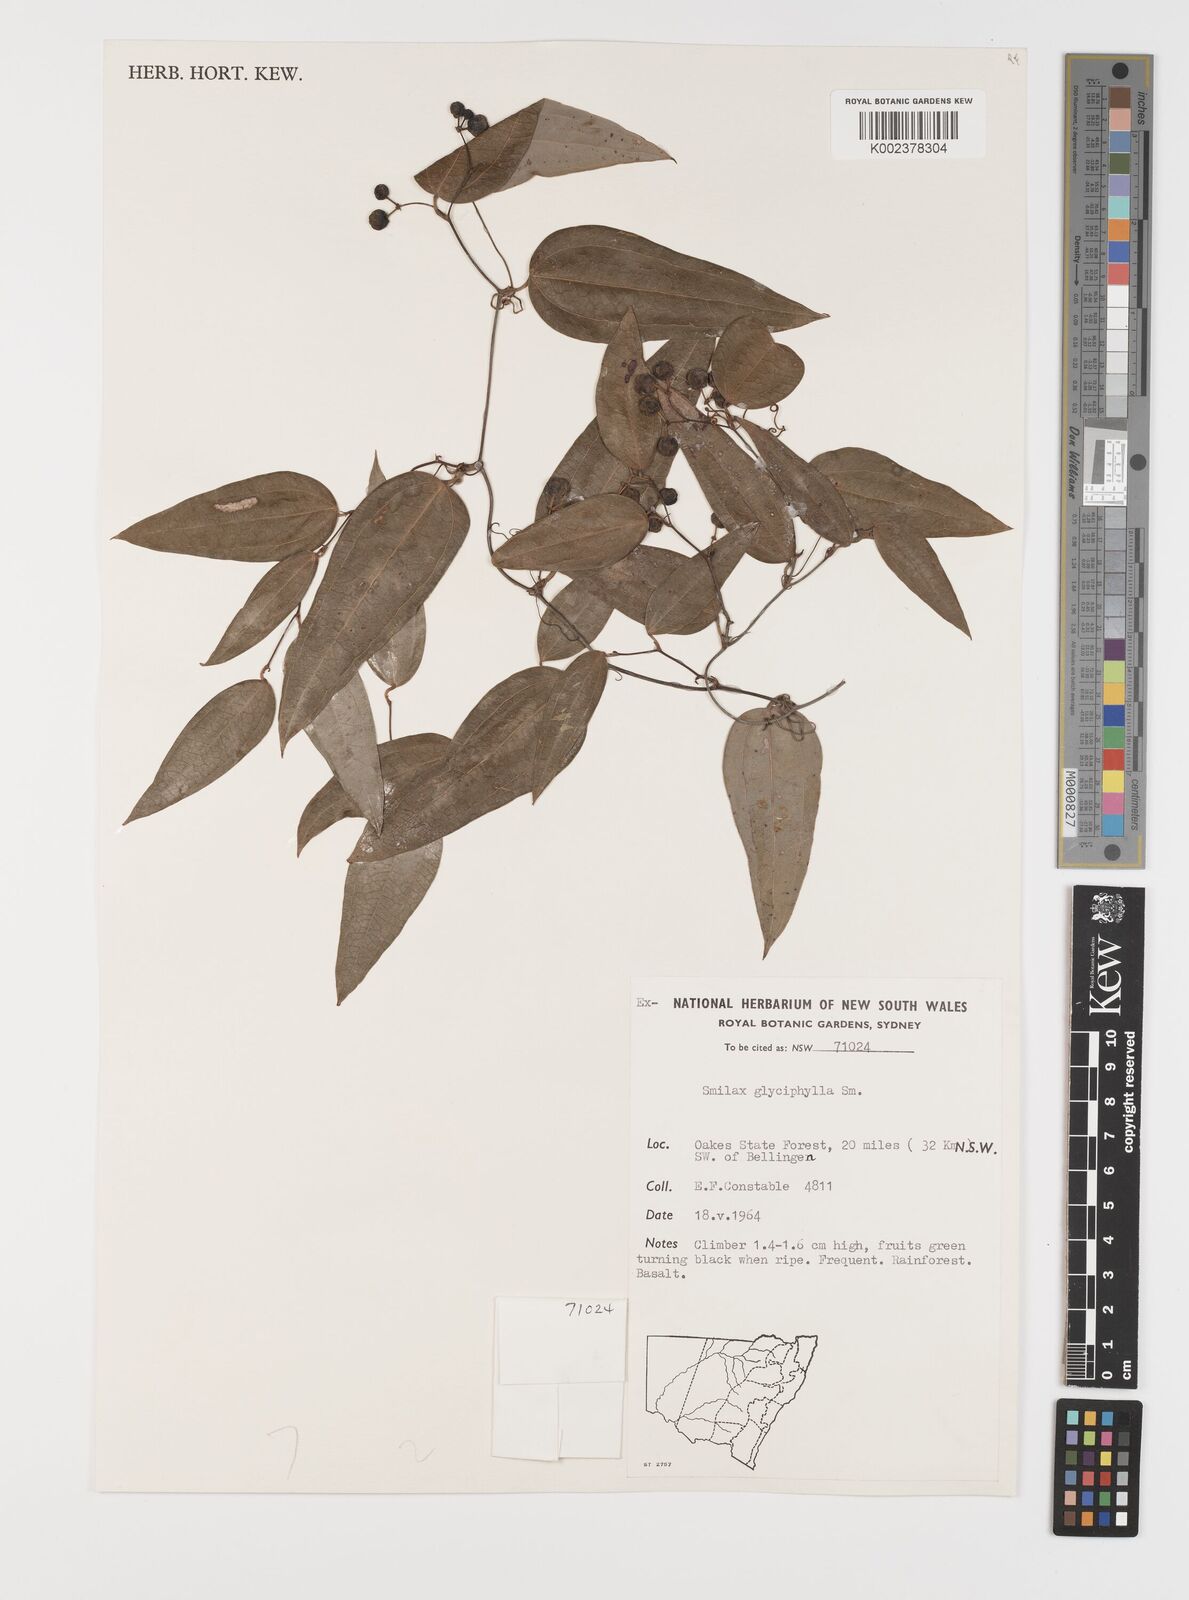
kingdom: Plantae
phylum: Tracheophyta
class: Liliopsida
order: Liliales
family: Smilacaceae
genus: Smilax
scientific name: Smilax glyciphylla
